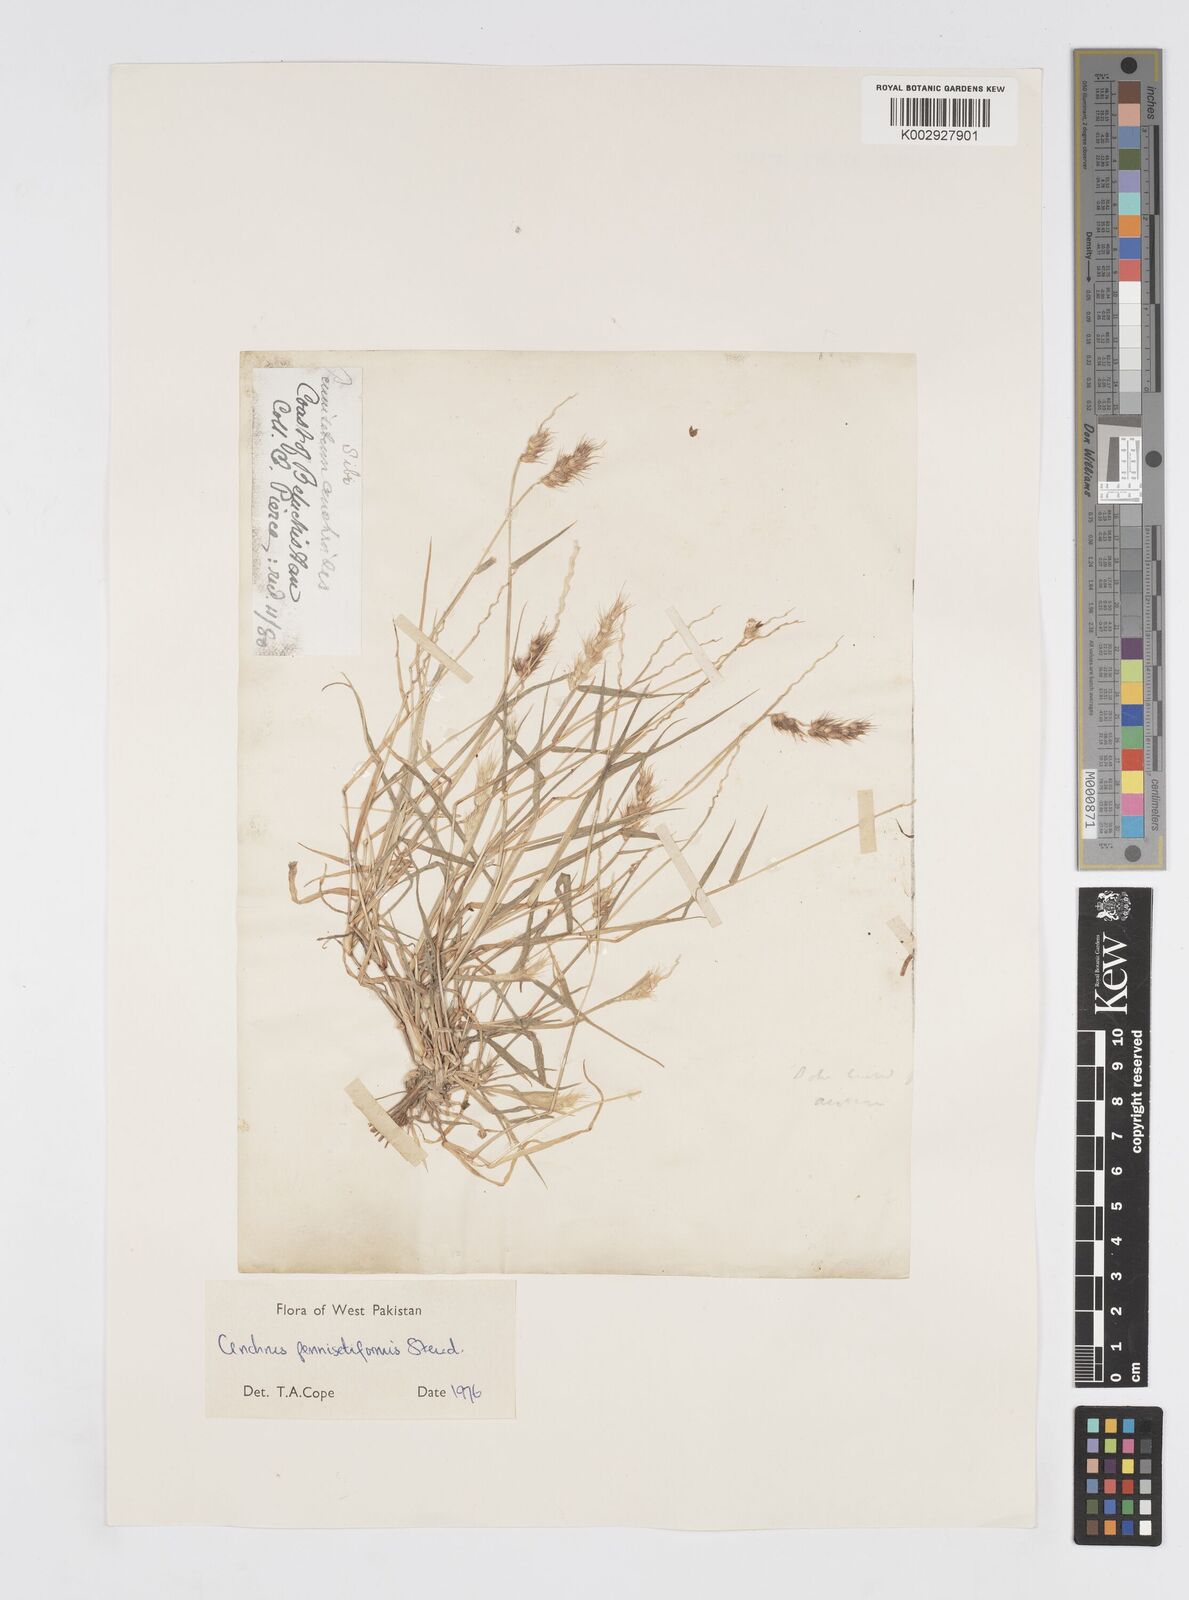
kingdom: Plantae
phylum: Tracheophyta
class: Liliopsida
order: Poales
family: Poaceae
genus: Cenchrus
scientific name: Cenchrus pennisetiformis
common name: Cloncurry
